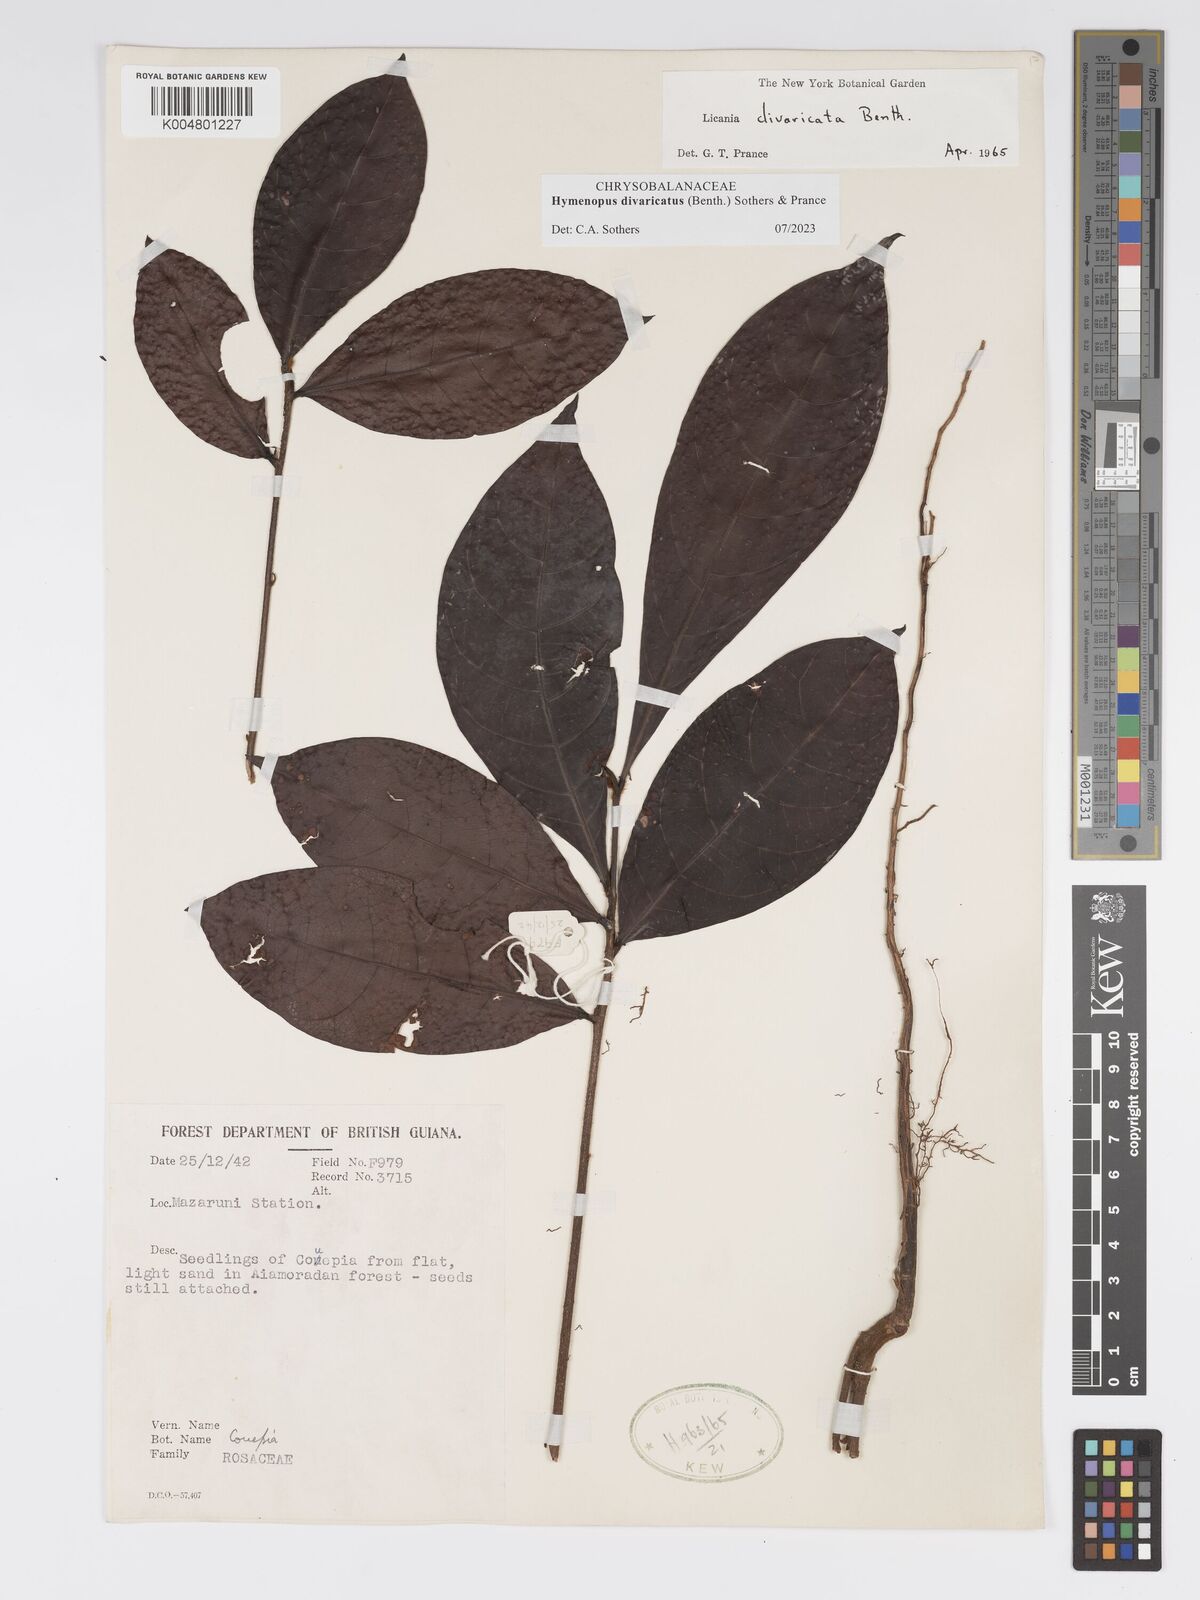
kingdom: Plantae
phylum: Tracheophyta
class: Magnoliopsida
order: Malpighiales
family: Chrysobalanaceae
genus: Hymenopus
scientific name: Hymenopus divaricatus
